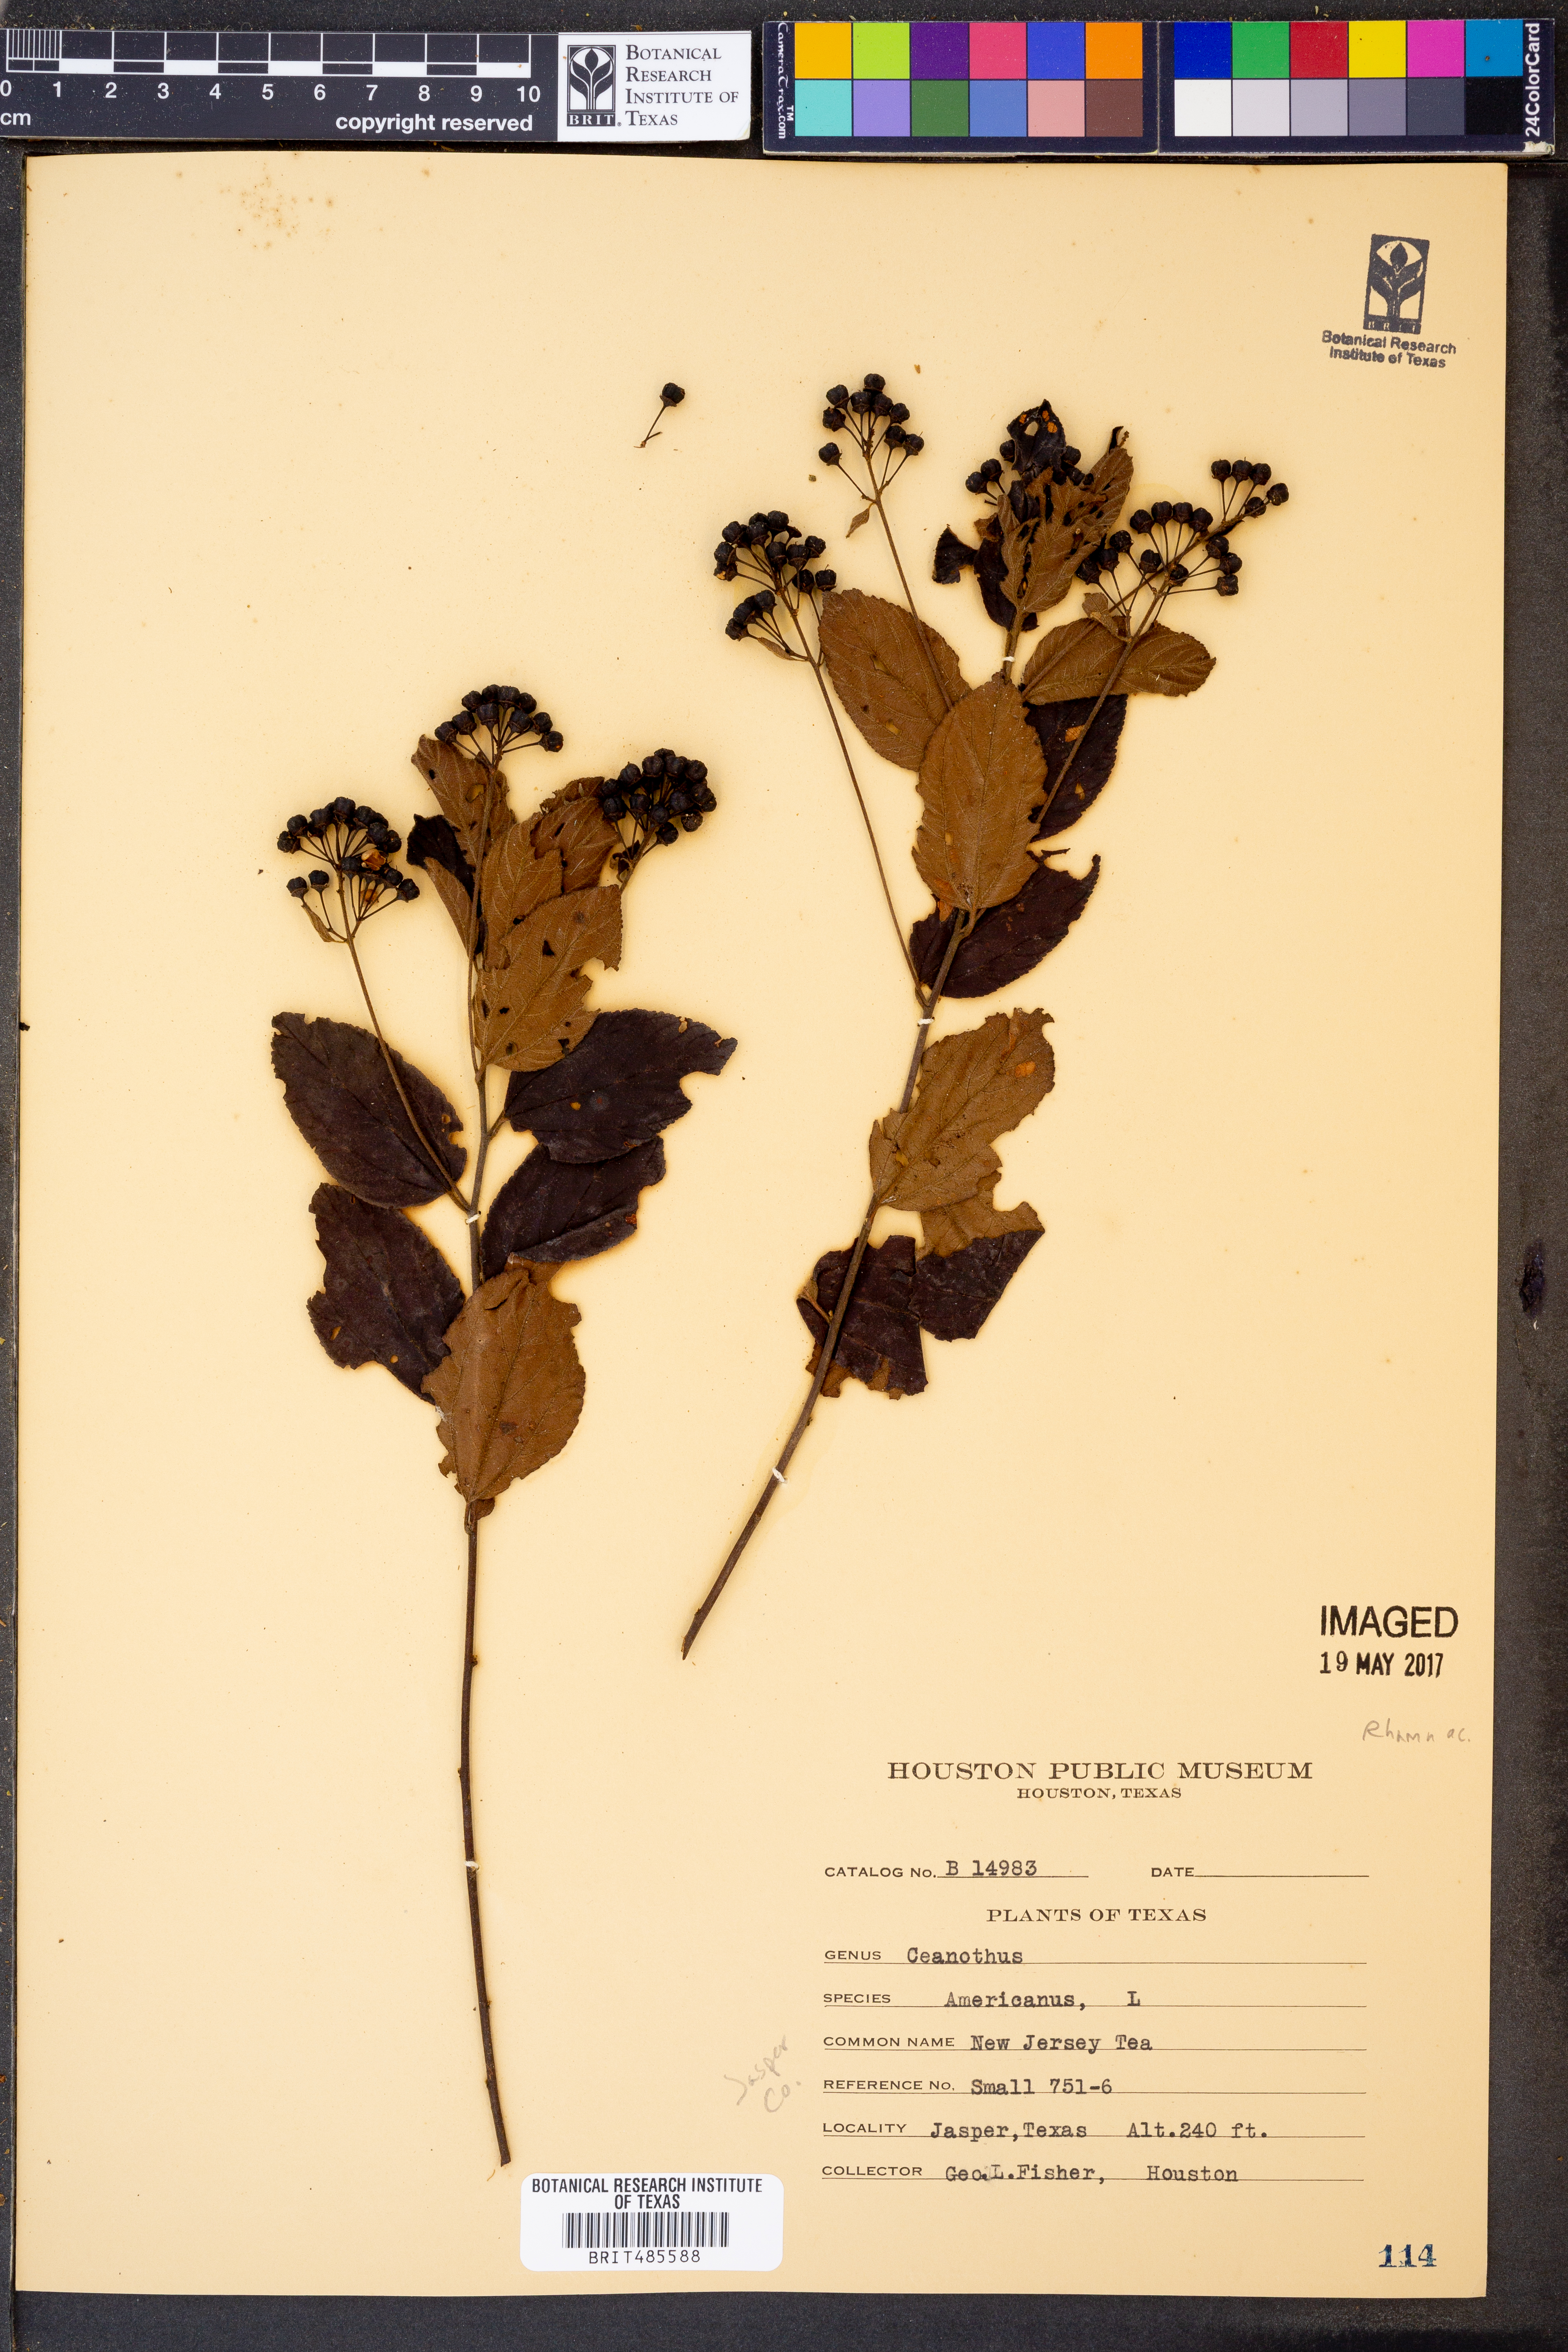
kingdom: Plantae
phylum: Tracheophyta
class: Magnoliopsida
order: Rosales
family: Rhamnaceae
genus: Ceanothus
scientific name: Ceanothus americanus
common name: Redroot
